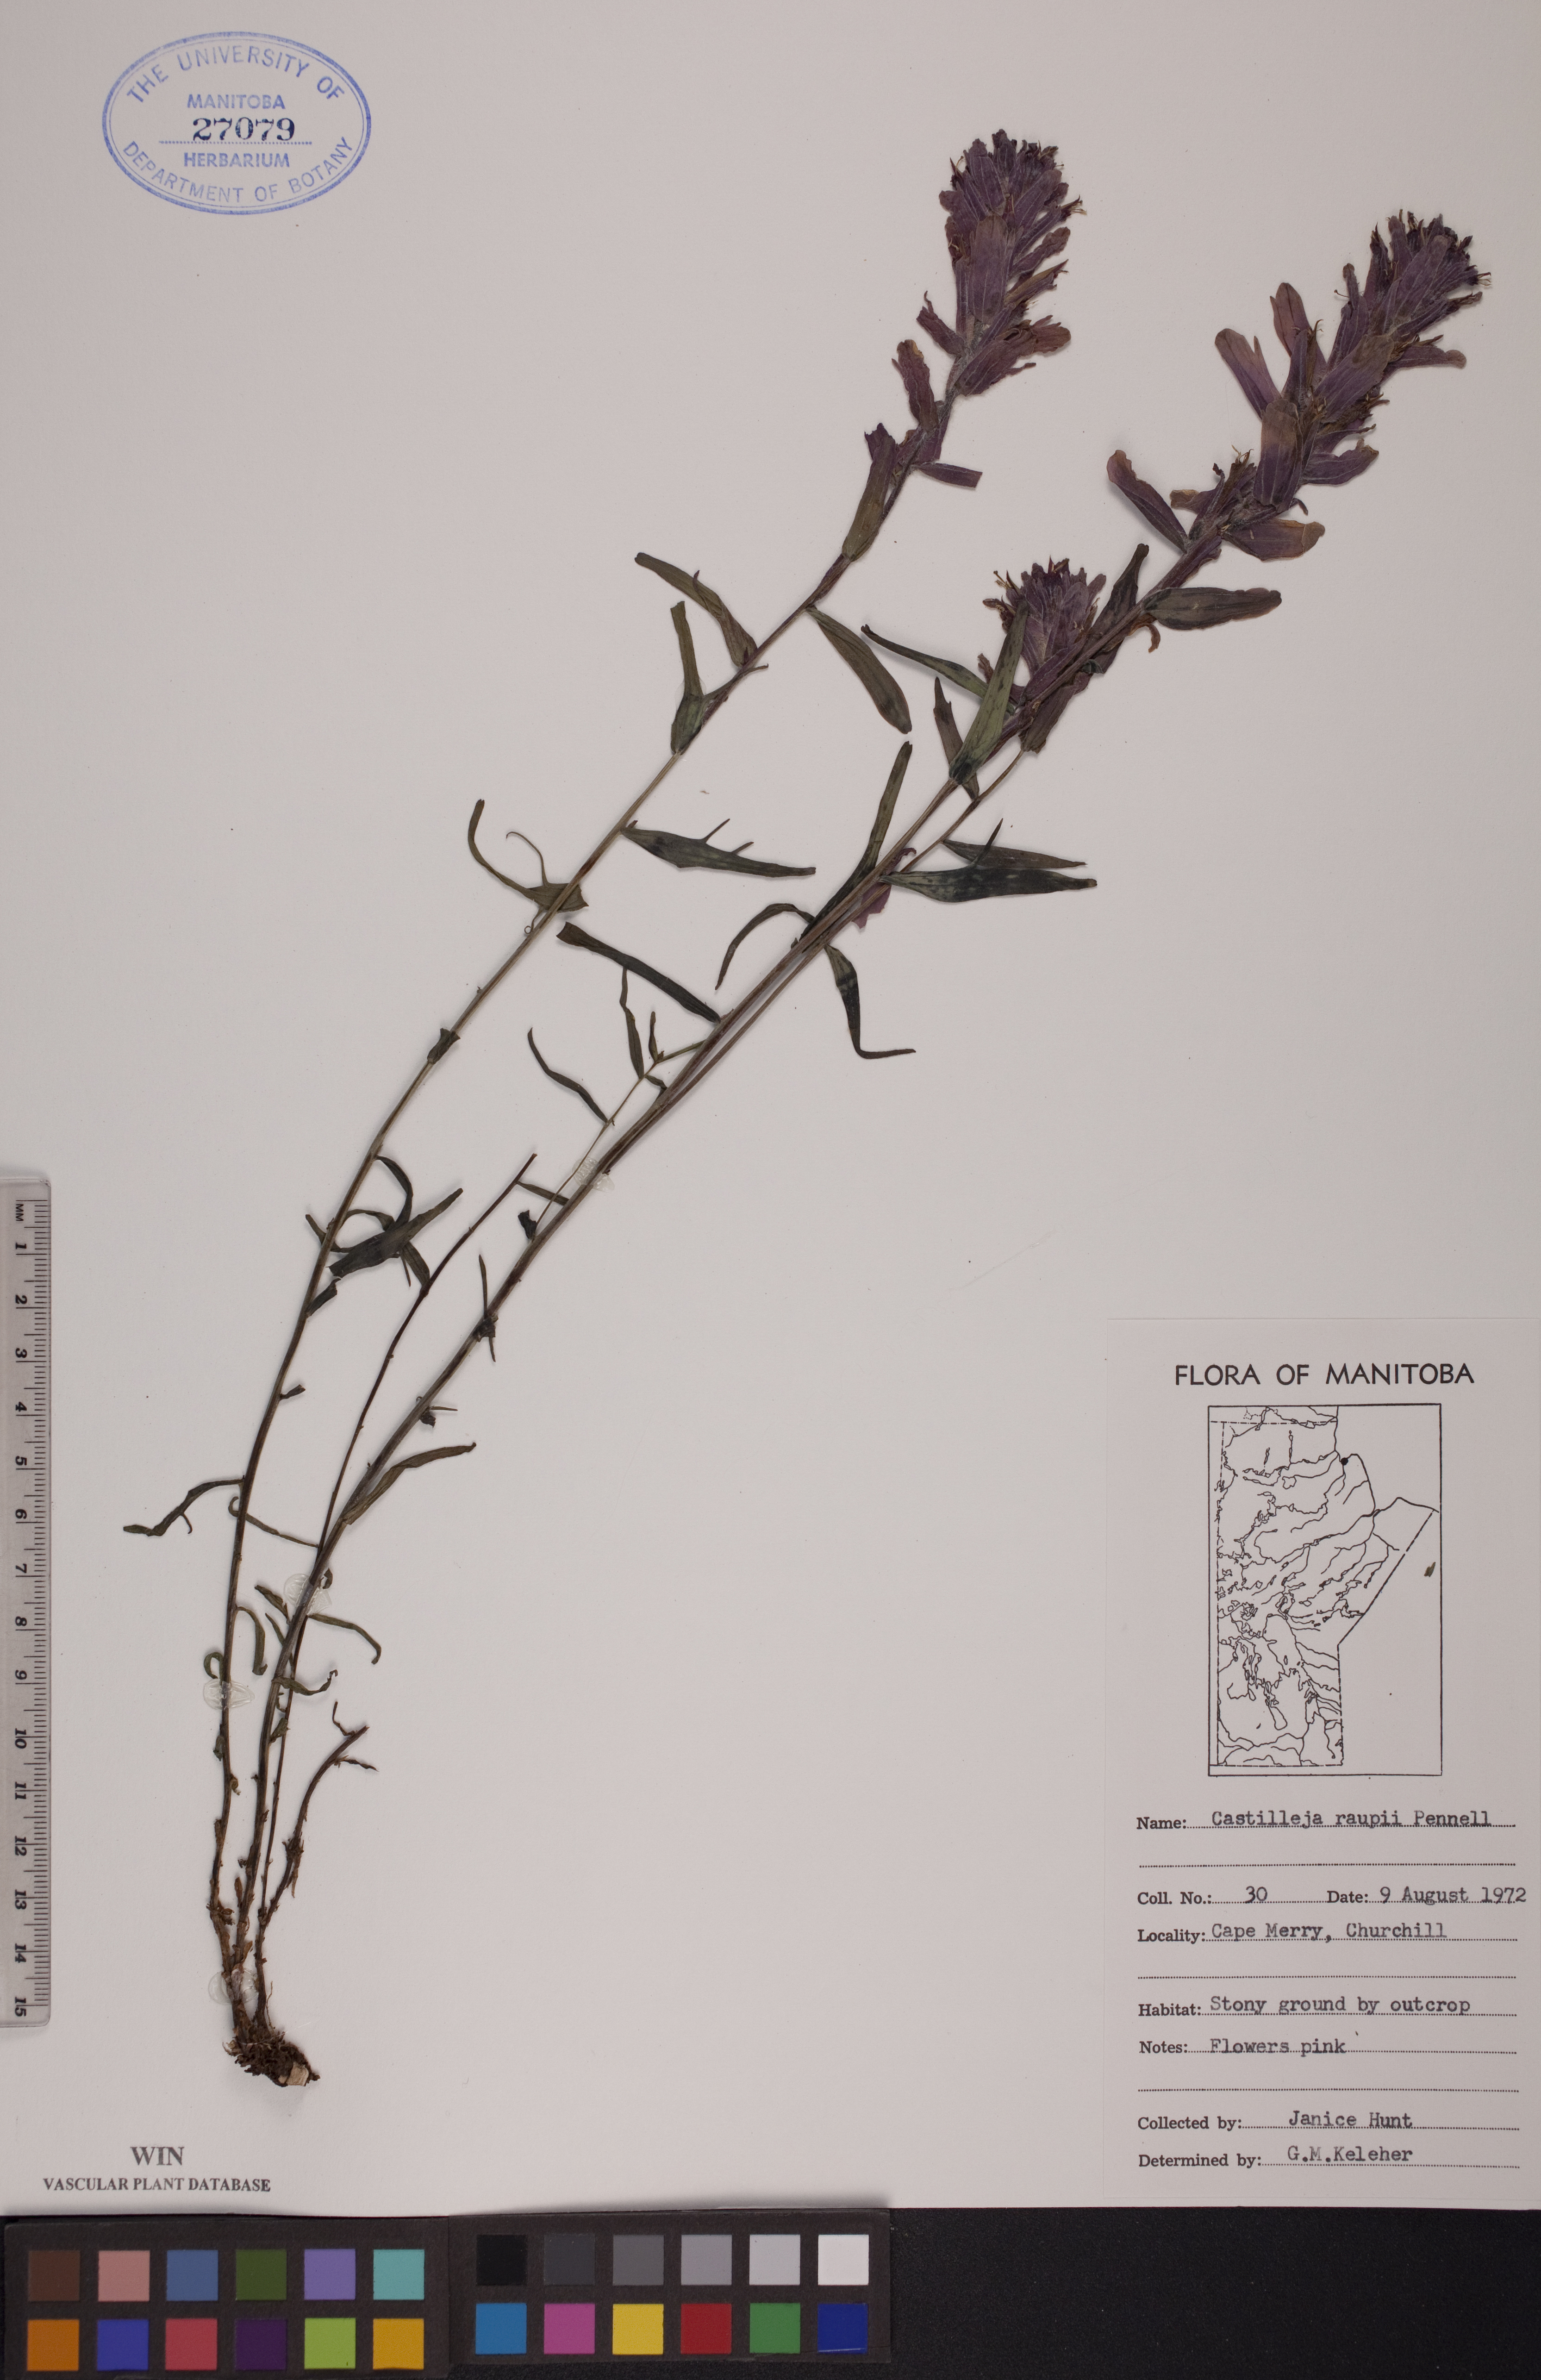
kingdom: Plantae
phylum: Tracheophyta
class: Magnoliopsida
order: Lamiales
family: Orobanchaceae
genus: Castilleja
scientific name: Castilleja raupii
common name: Raup's paintbrush
